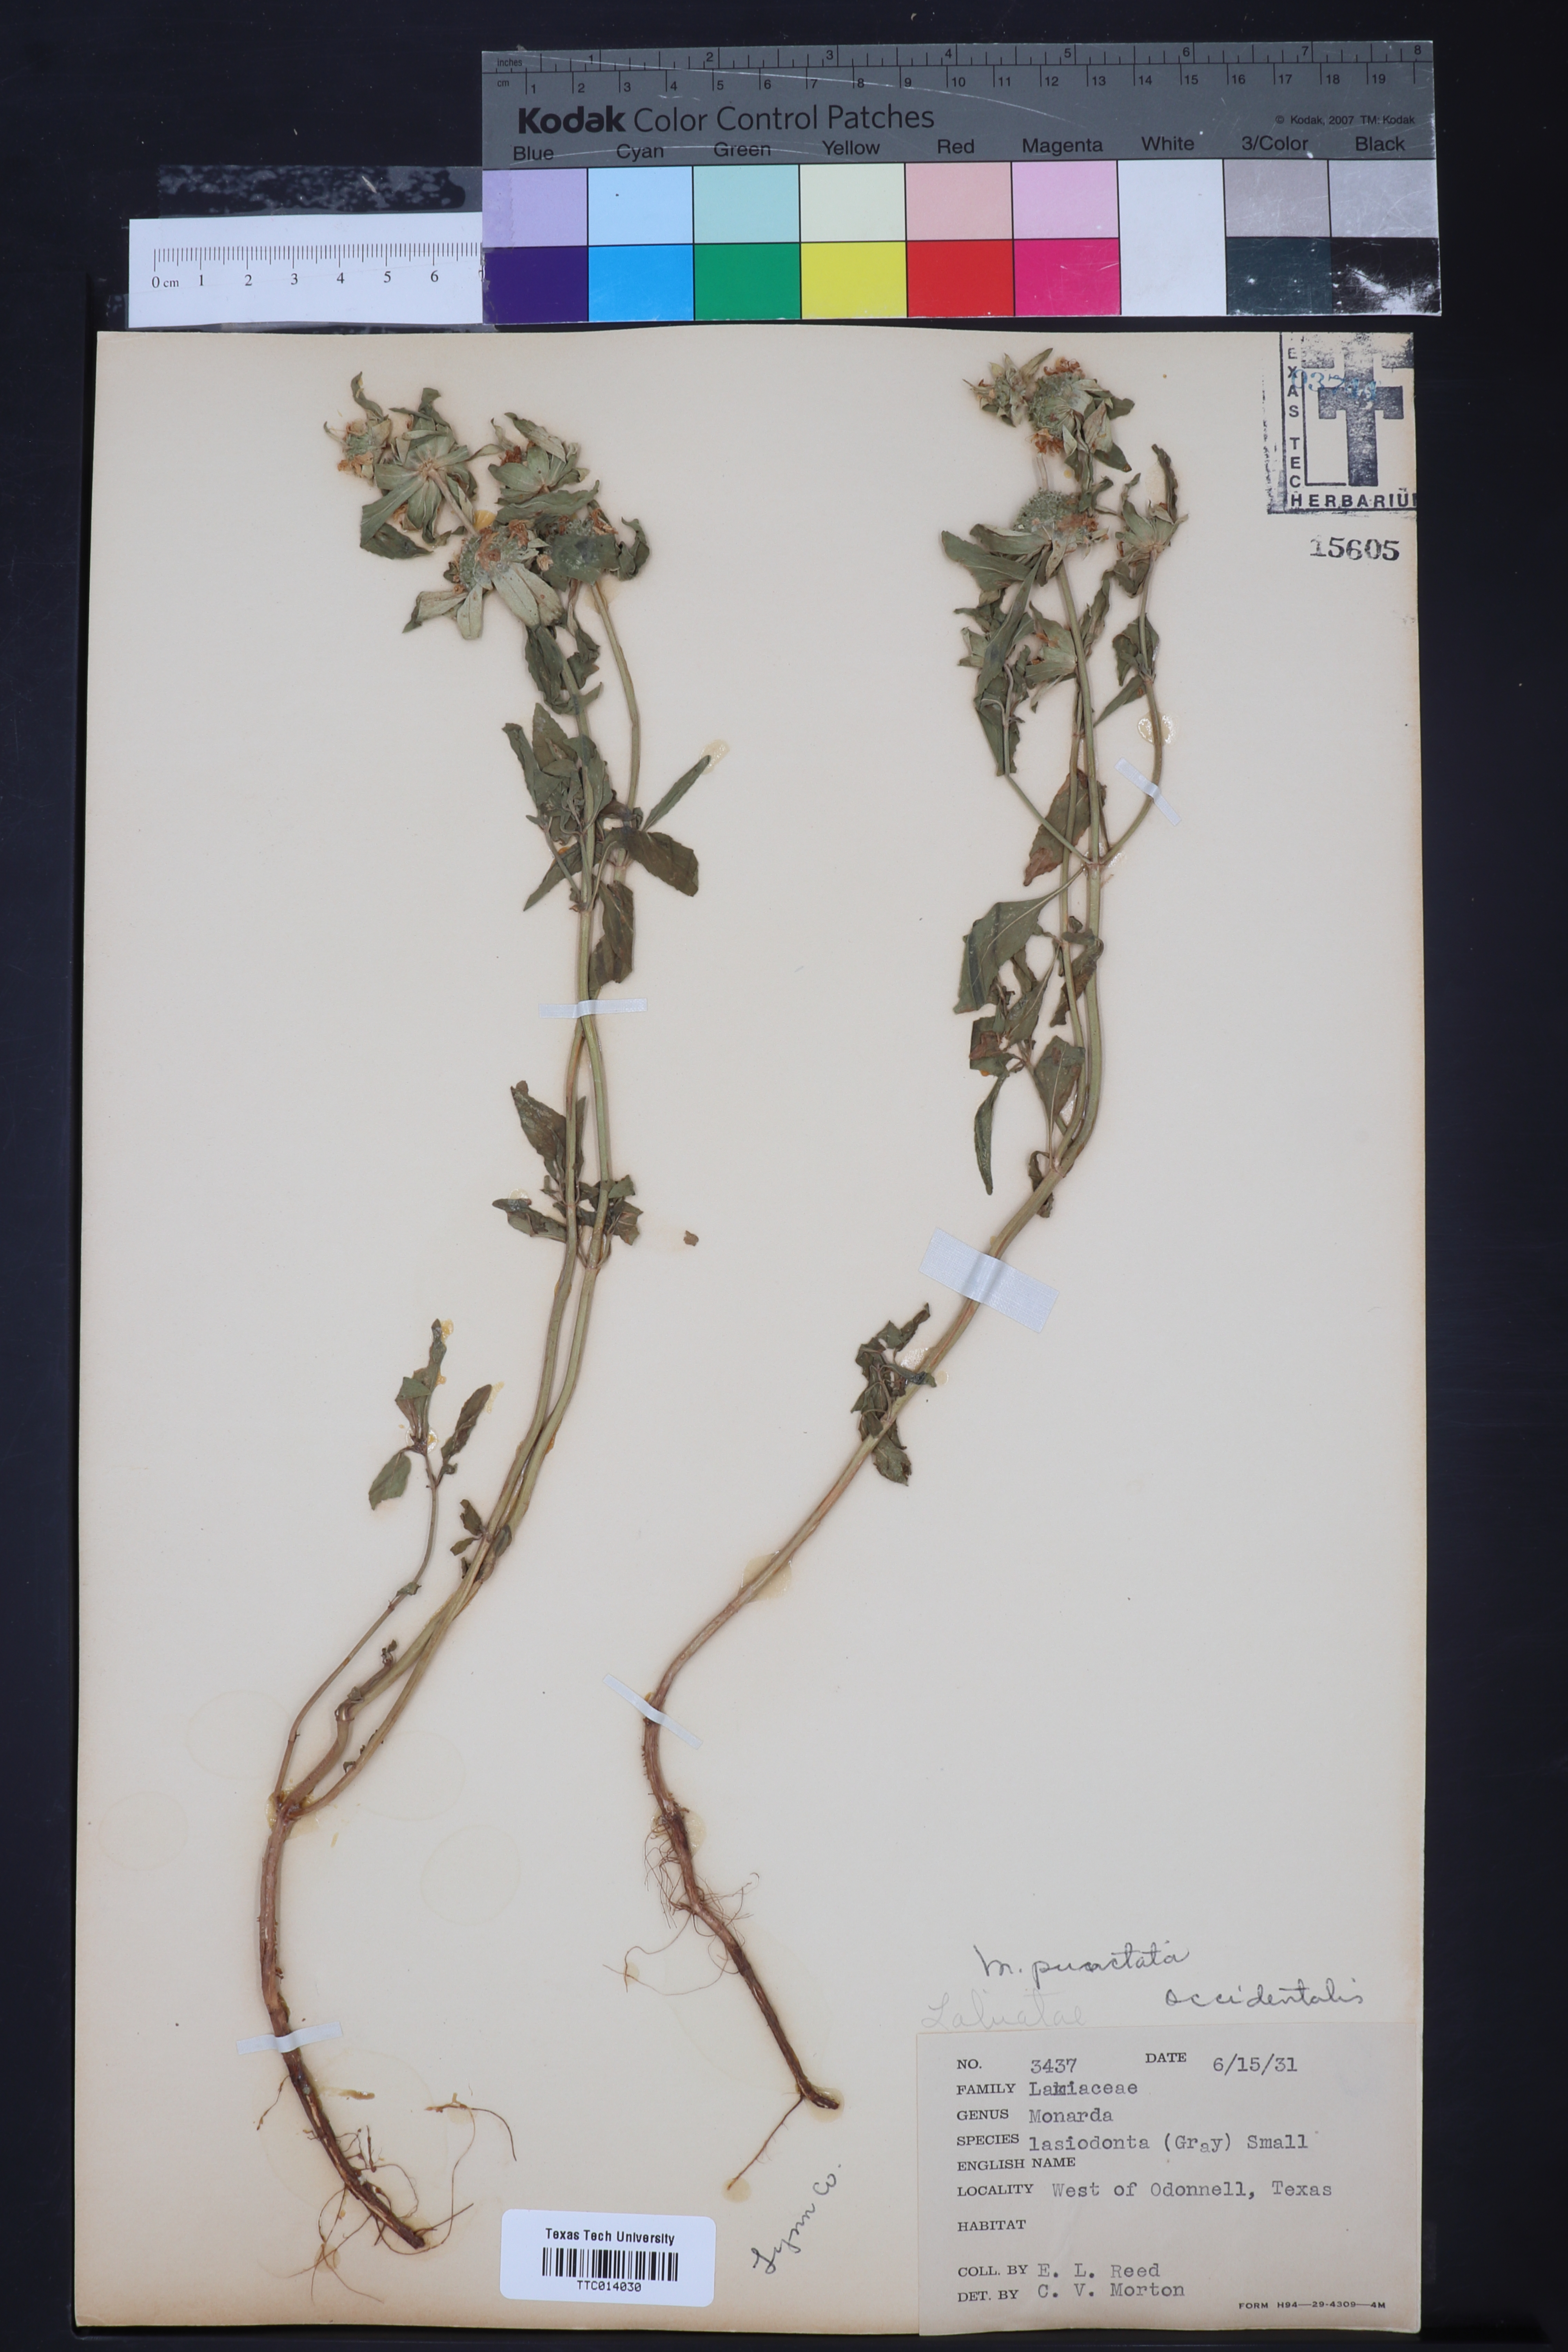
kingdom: Plantae
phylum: Tracheophyta
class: Magnoliopsida
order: Lamiales
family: Lamiaceae
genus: Monarda
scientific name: Monarda punctata
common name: Dotted monarda
